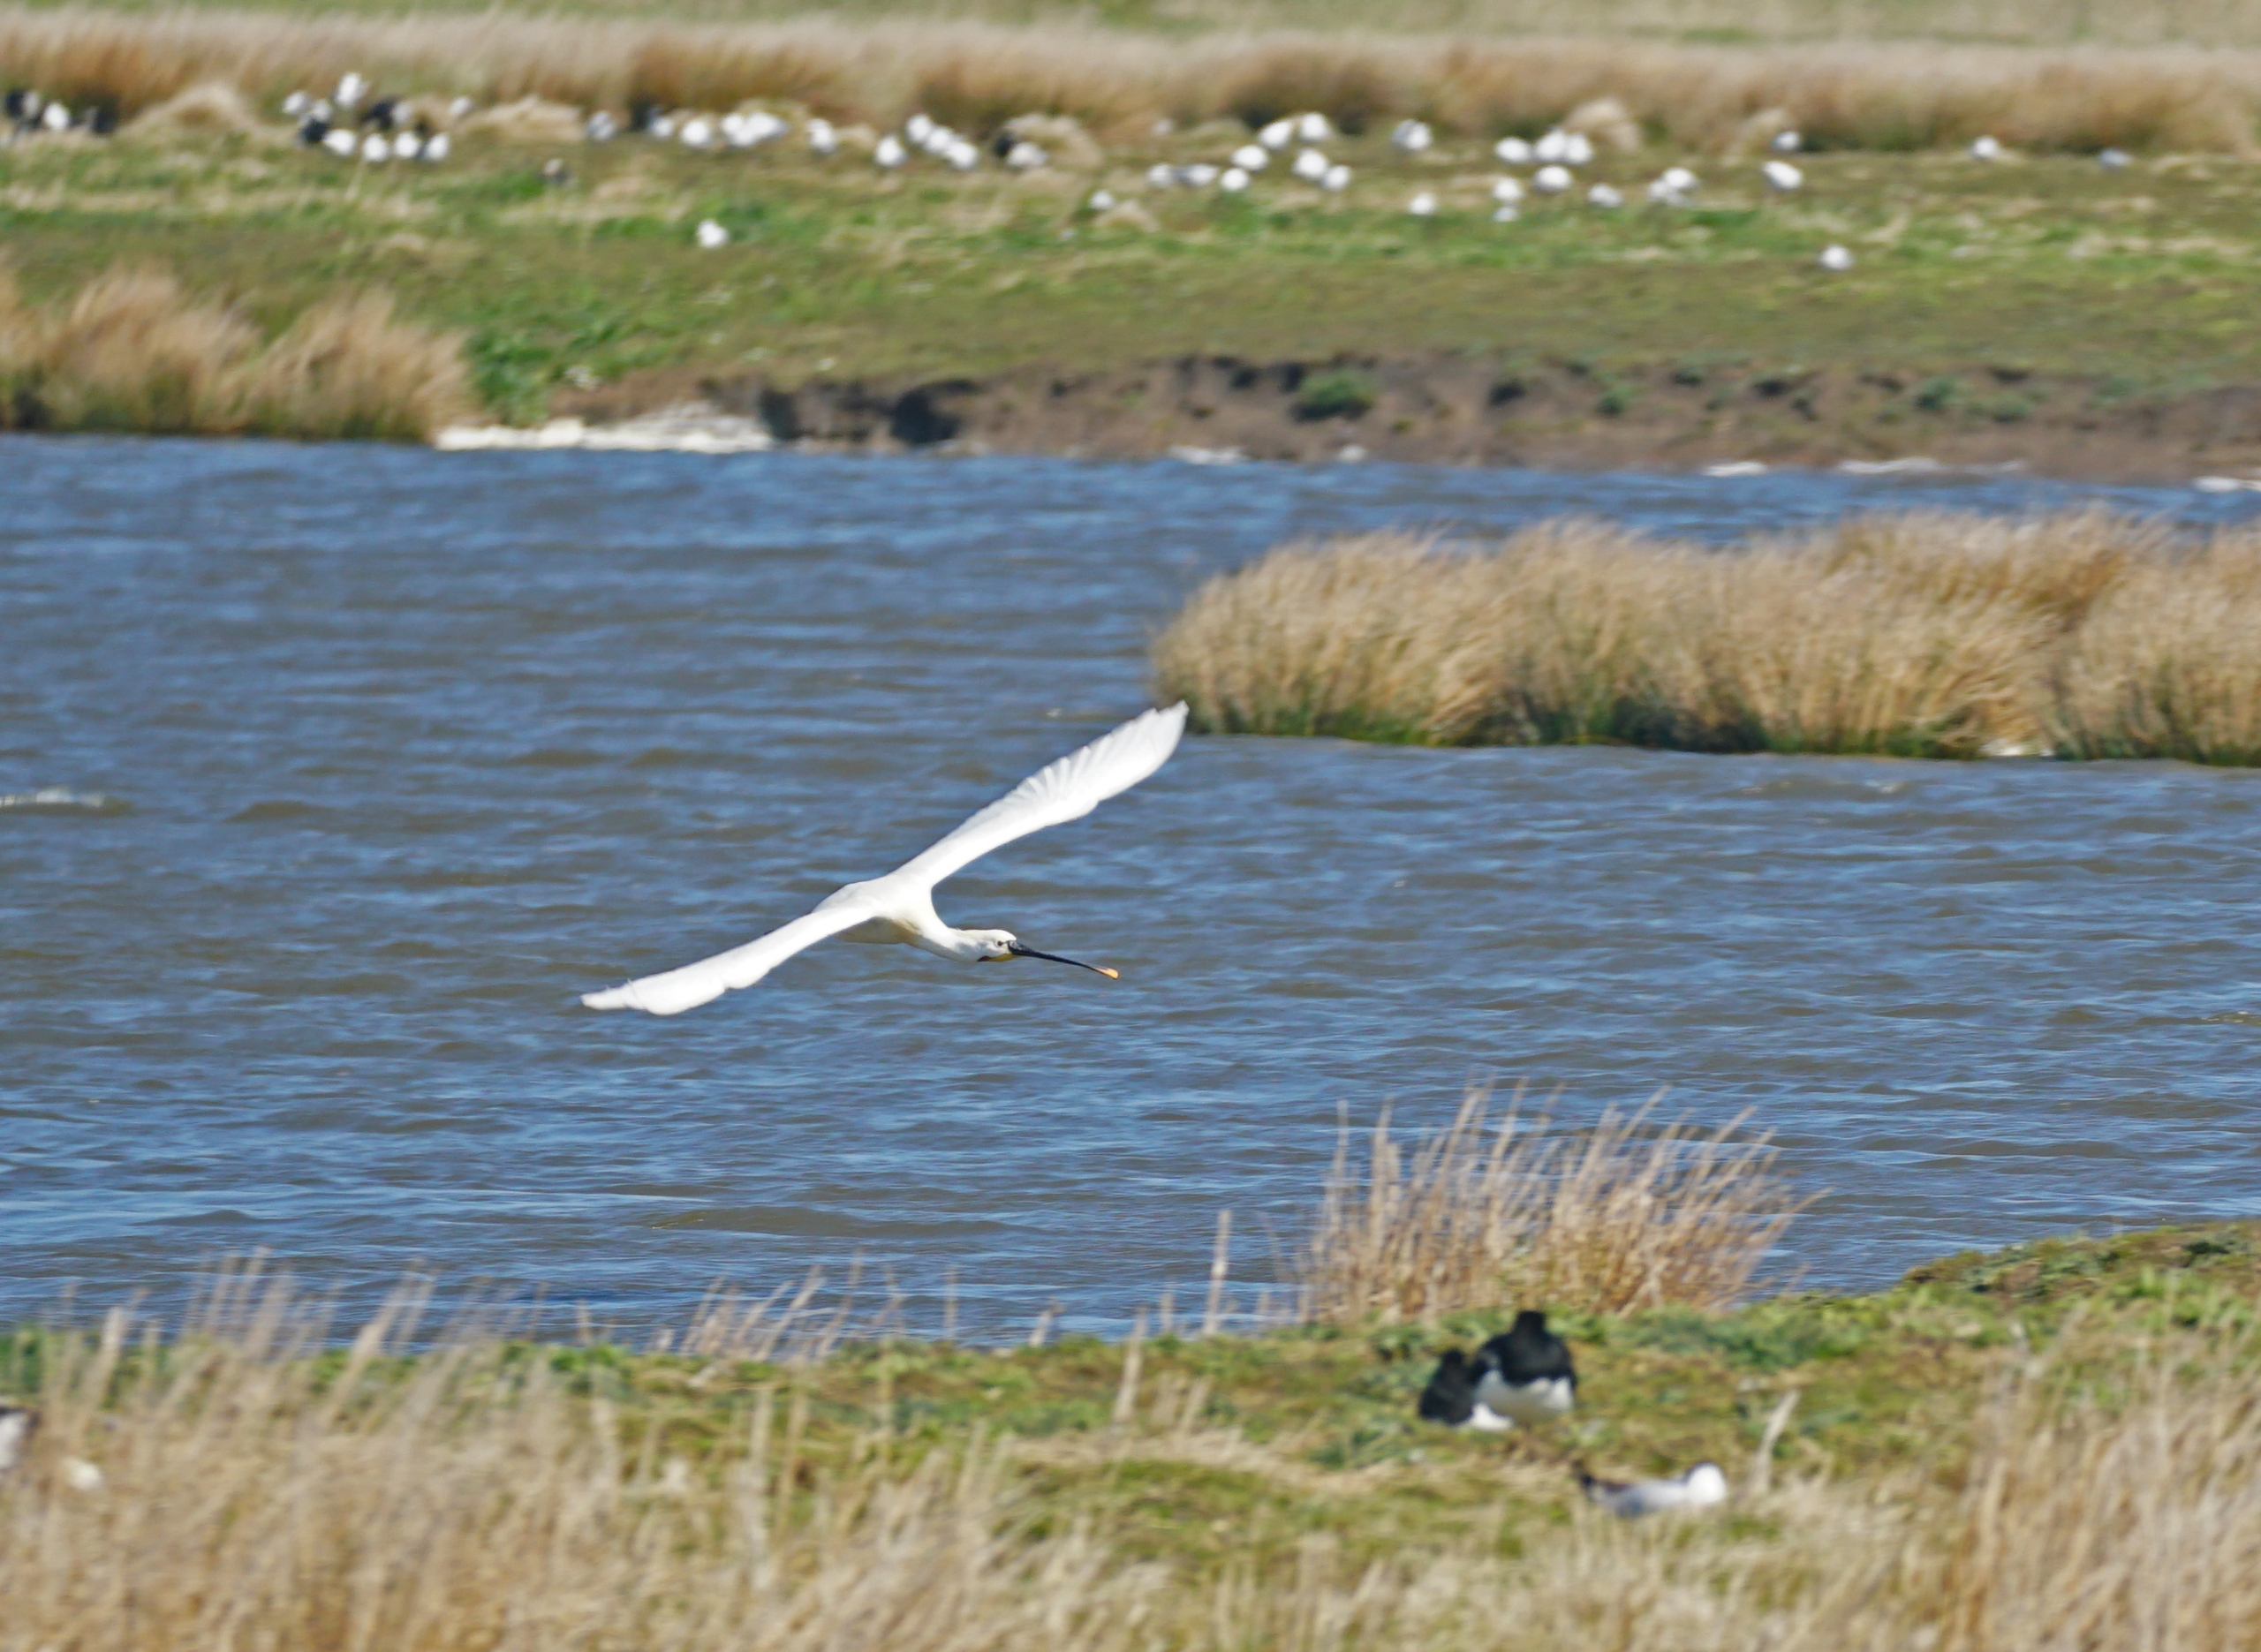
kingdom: Animalia
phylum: Chordata
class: Aves
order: Pelecaniformes
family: Threskiornithidae
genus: Platalea
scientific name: Platalea leucorodia
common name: Skestork
